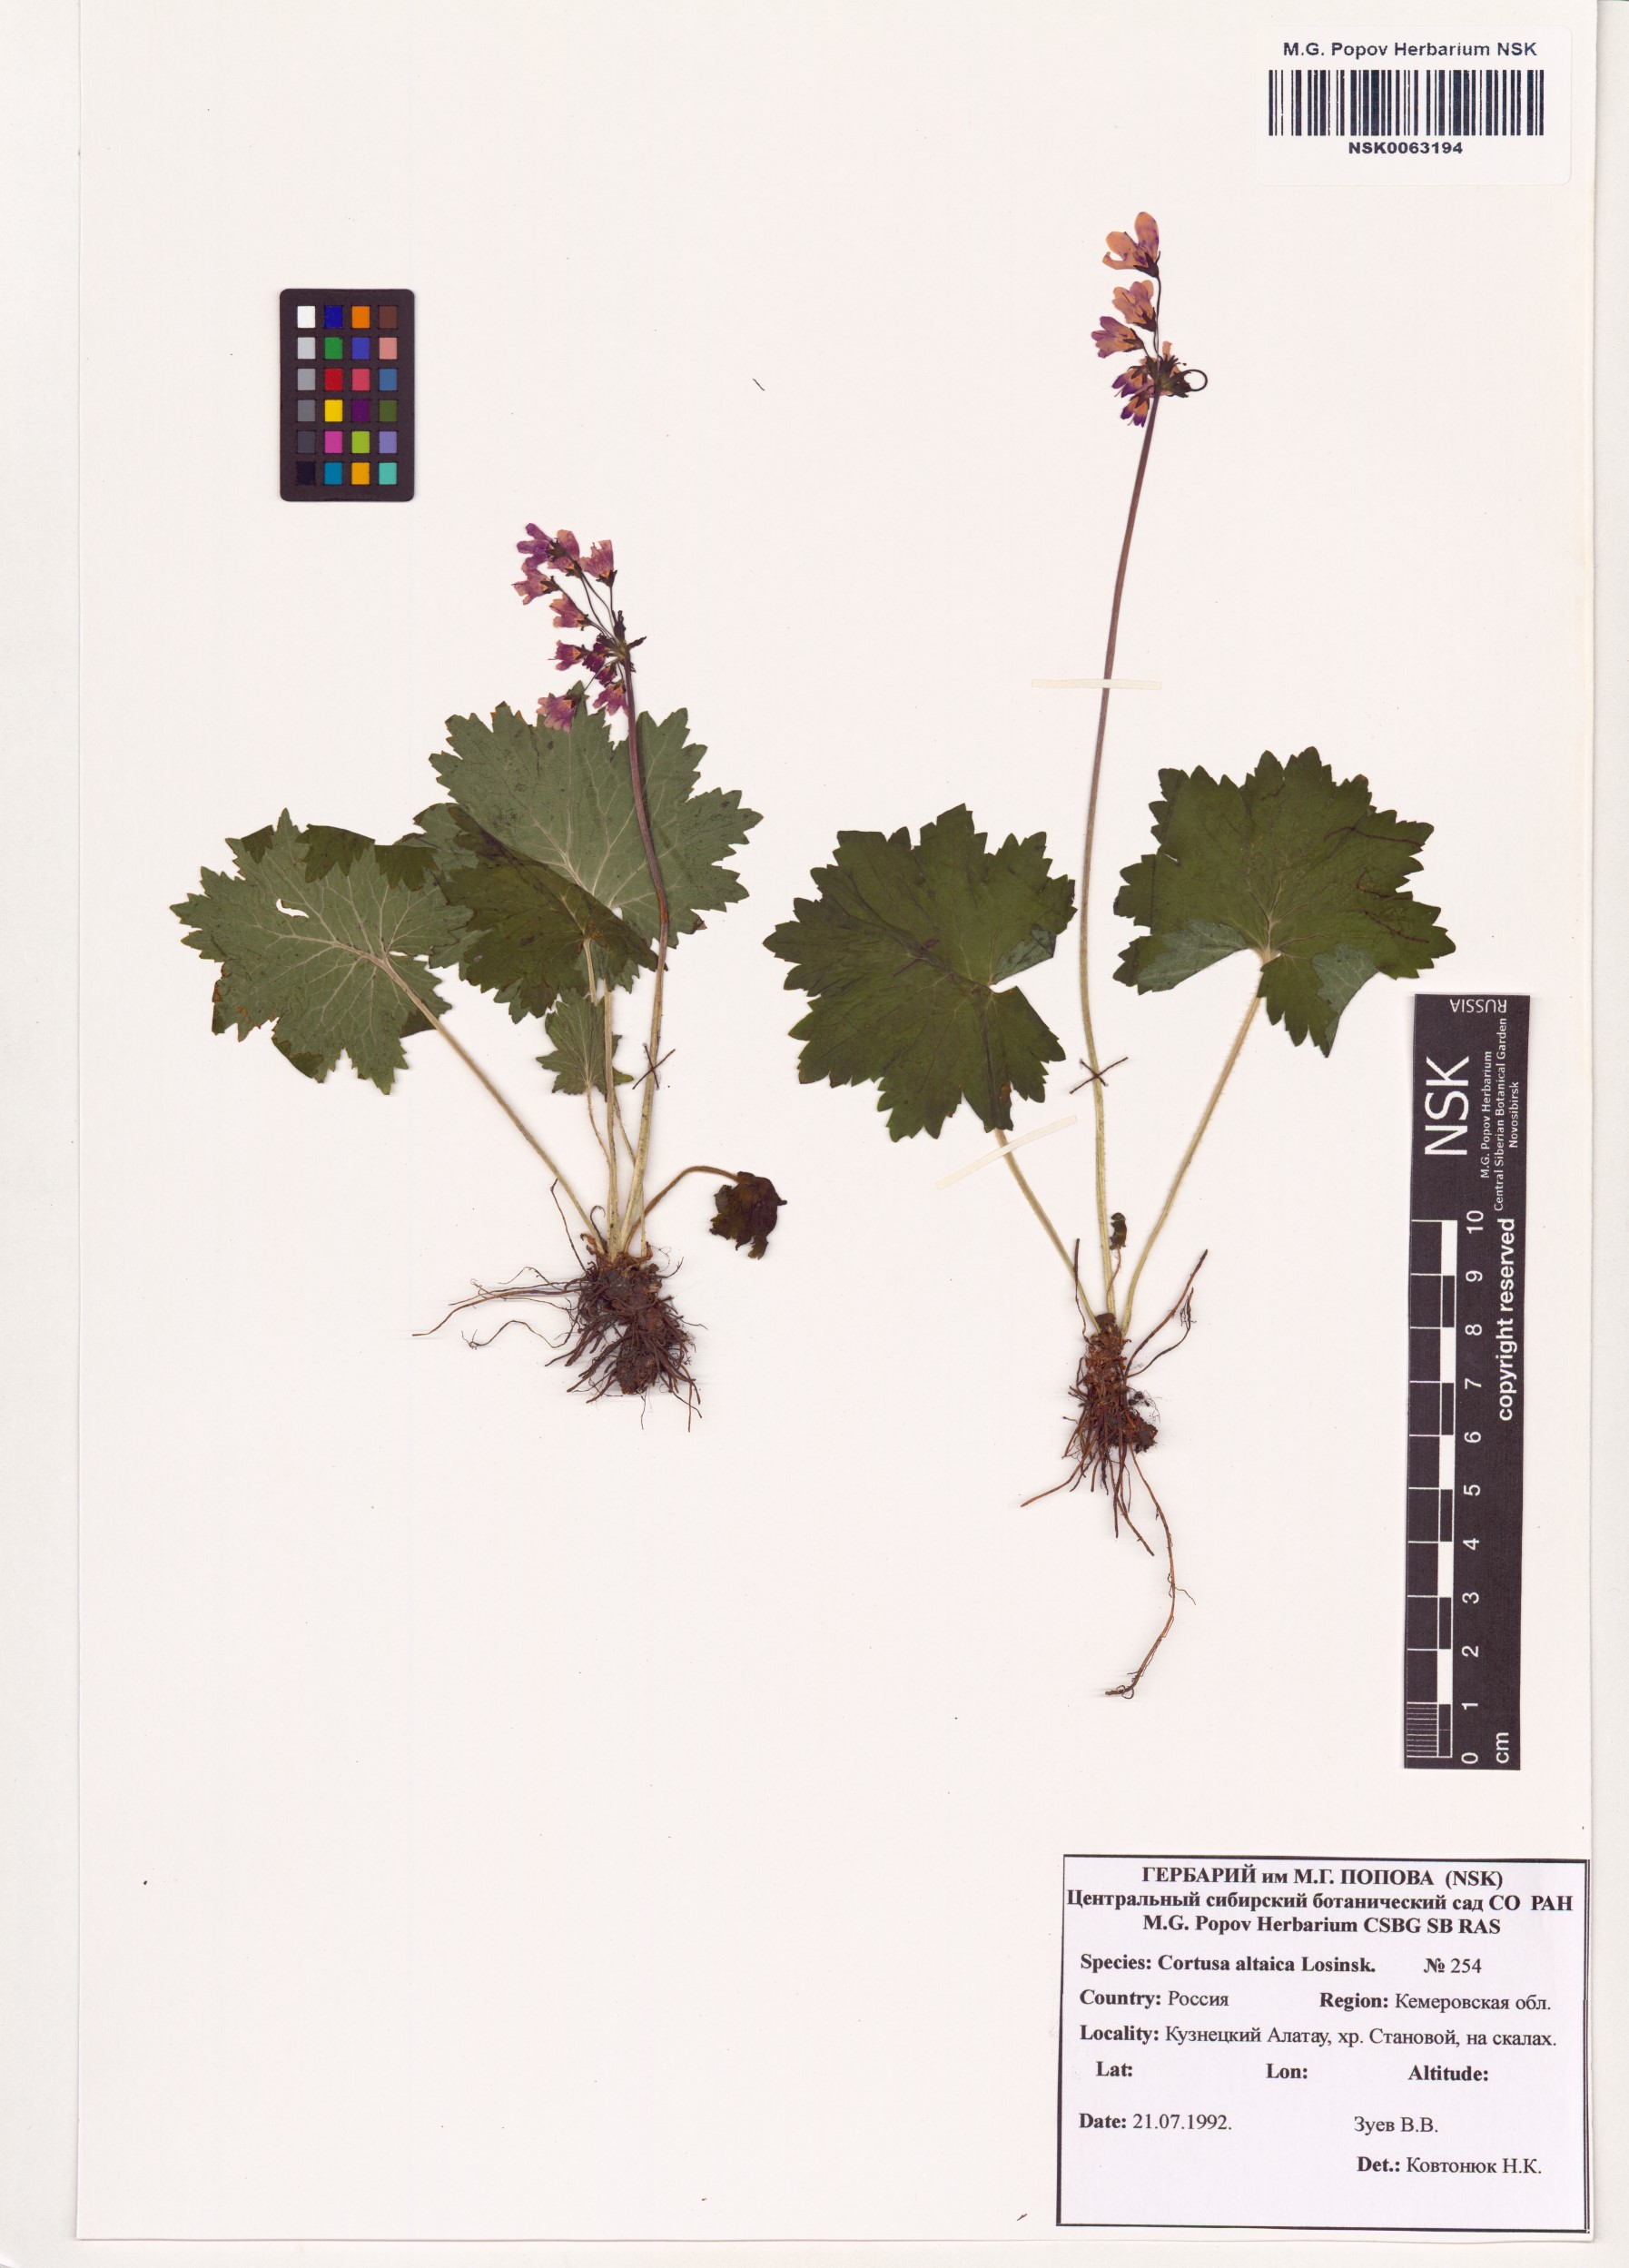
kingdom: Plantae
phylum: Tracheophyta
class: Magnoliopsida
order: Ericales
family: Primulaceae
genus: Primula
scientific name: Primula matthioli
